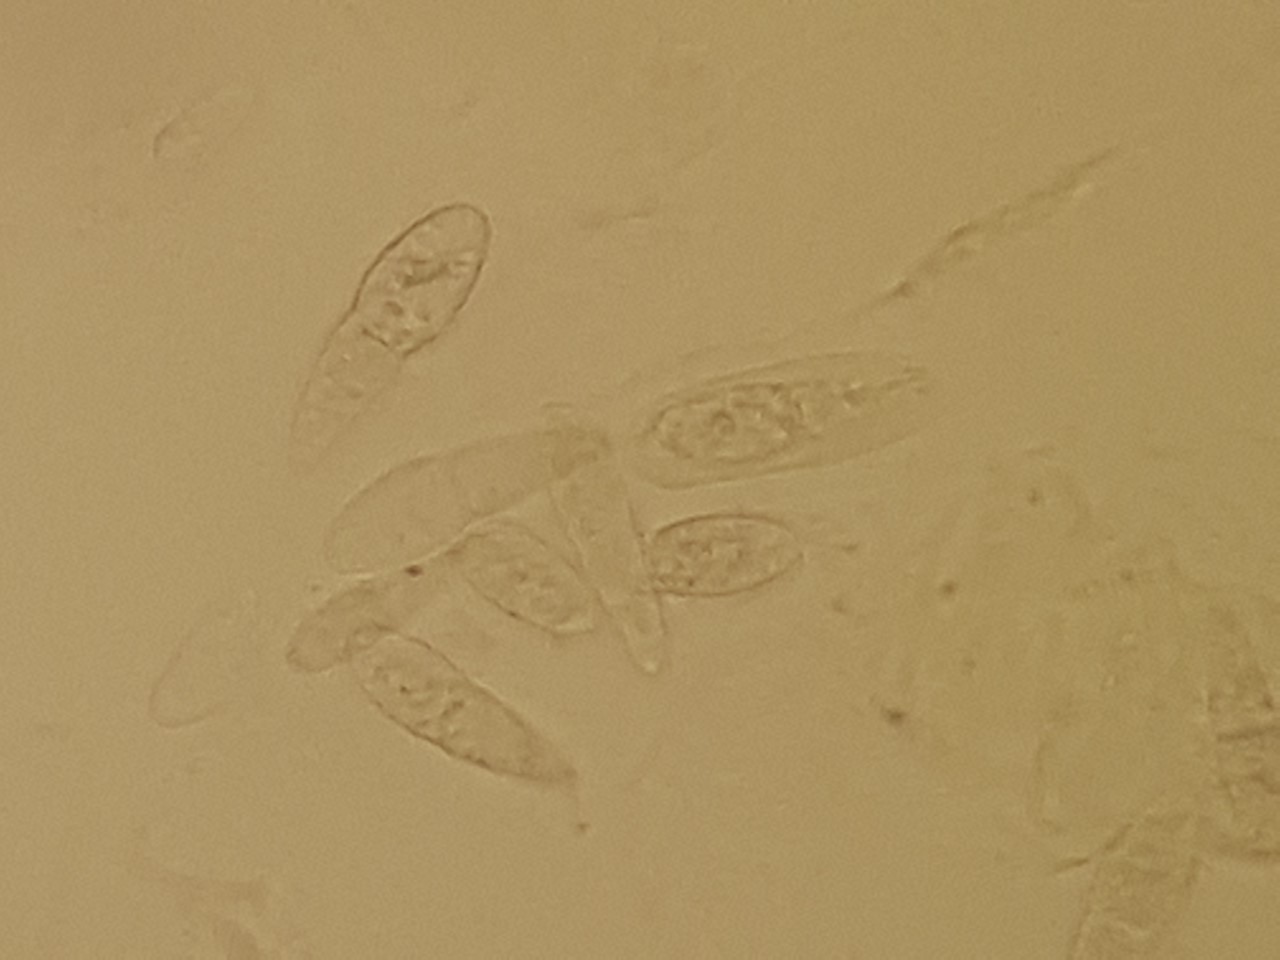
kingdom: Fungi
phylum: Ascomycota
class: Dothideomycetes
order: Botryosphaeriales
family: Botryosphaeriaceae
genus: Dothiora
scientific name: Dothiora sphaeroides
